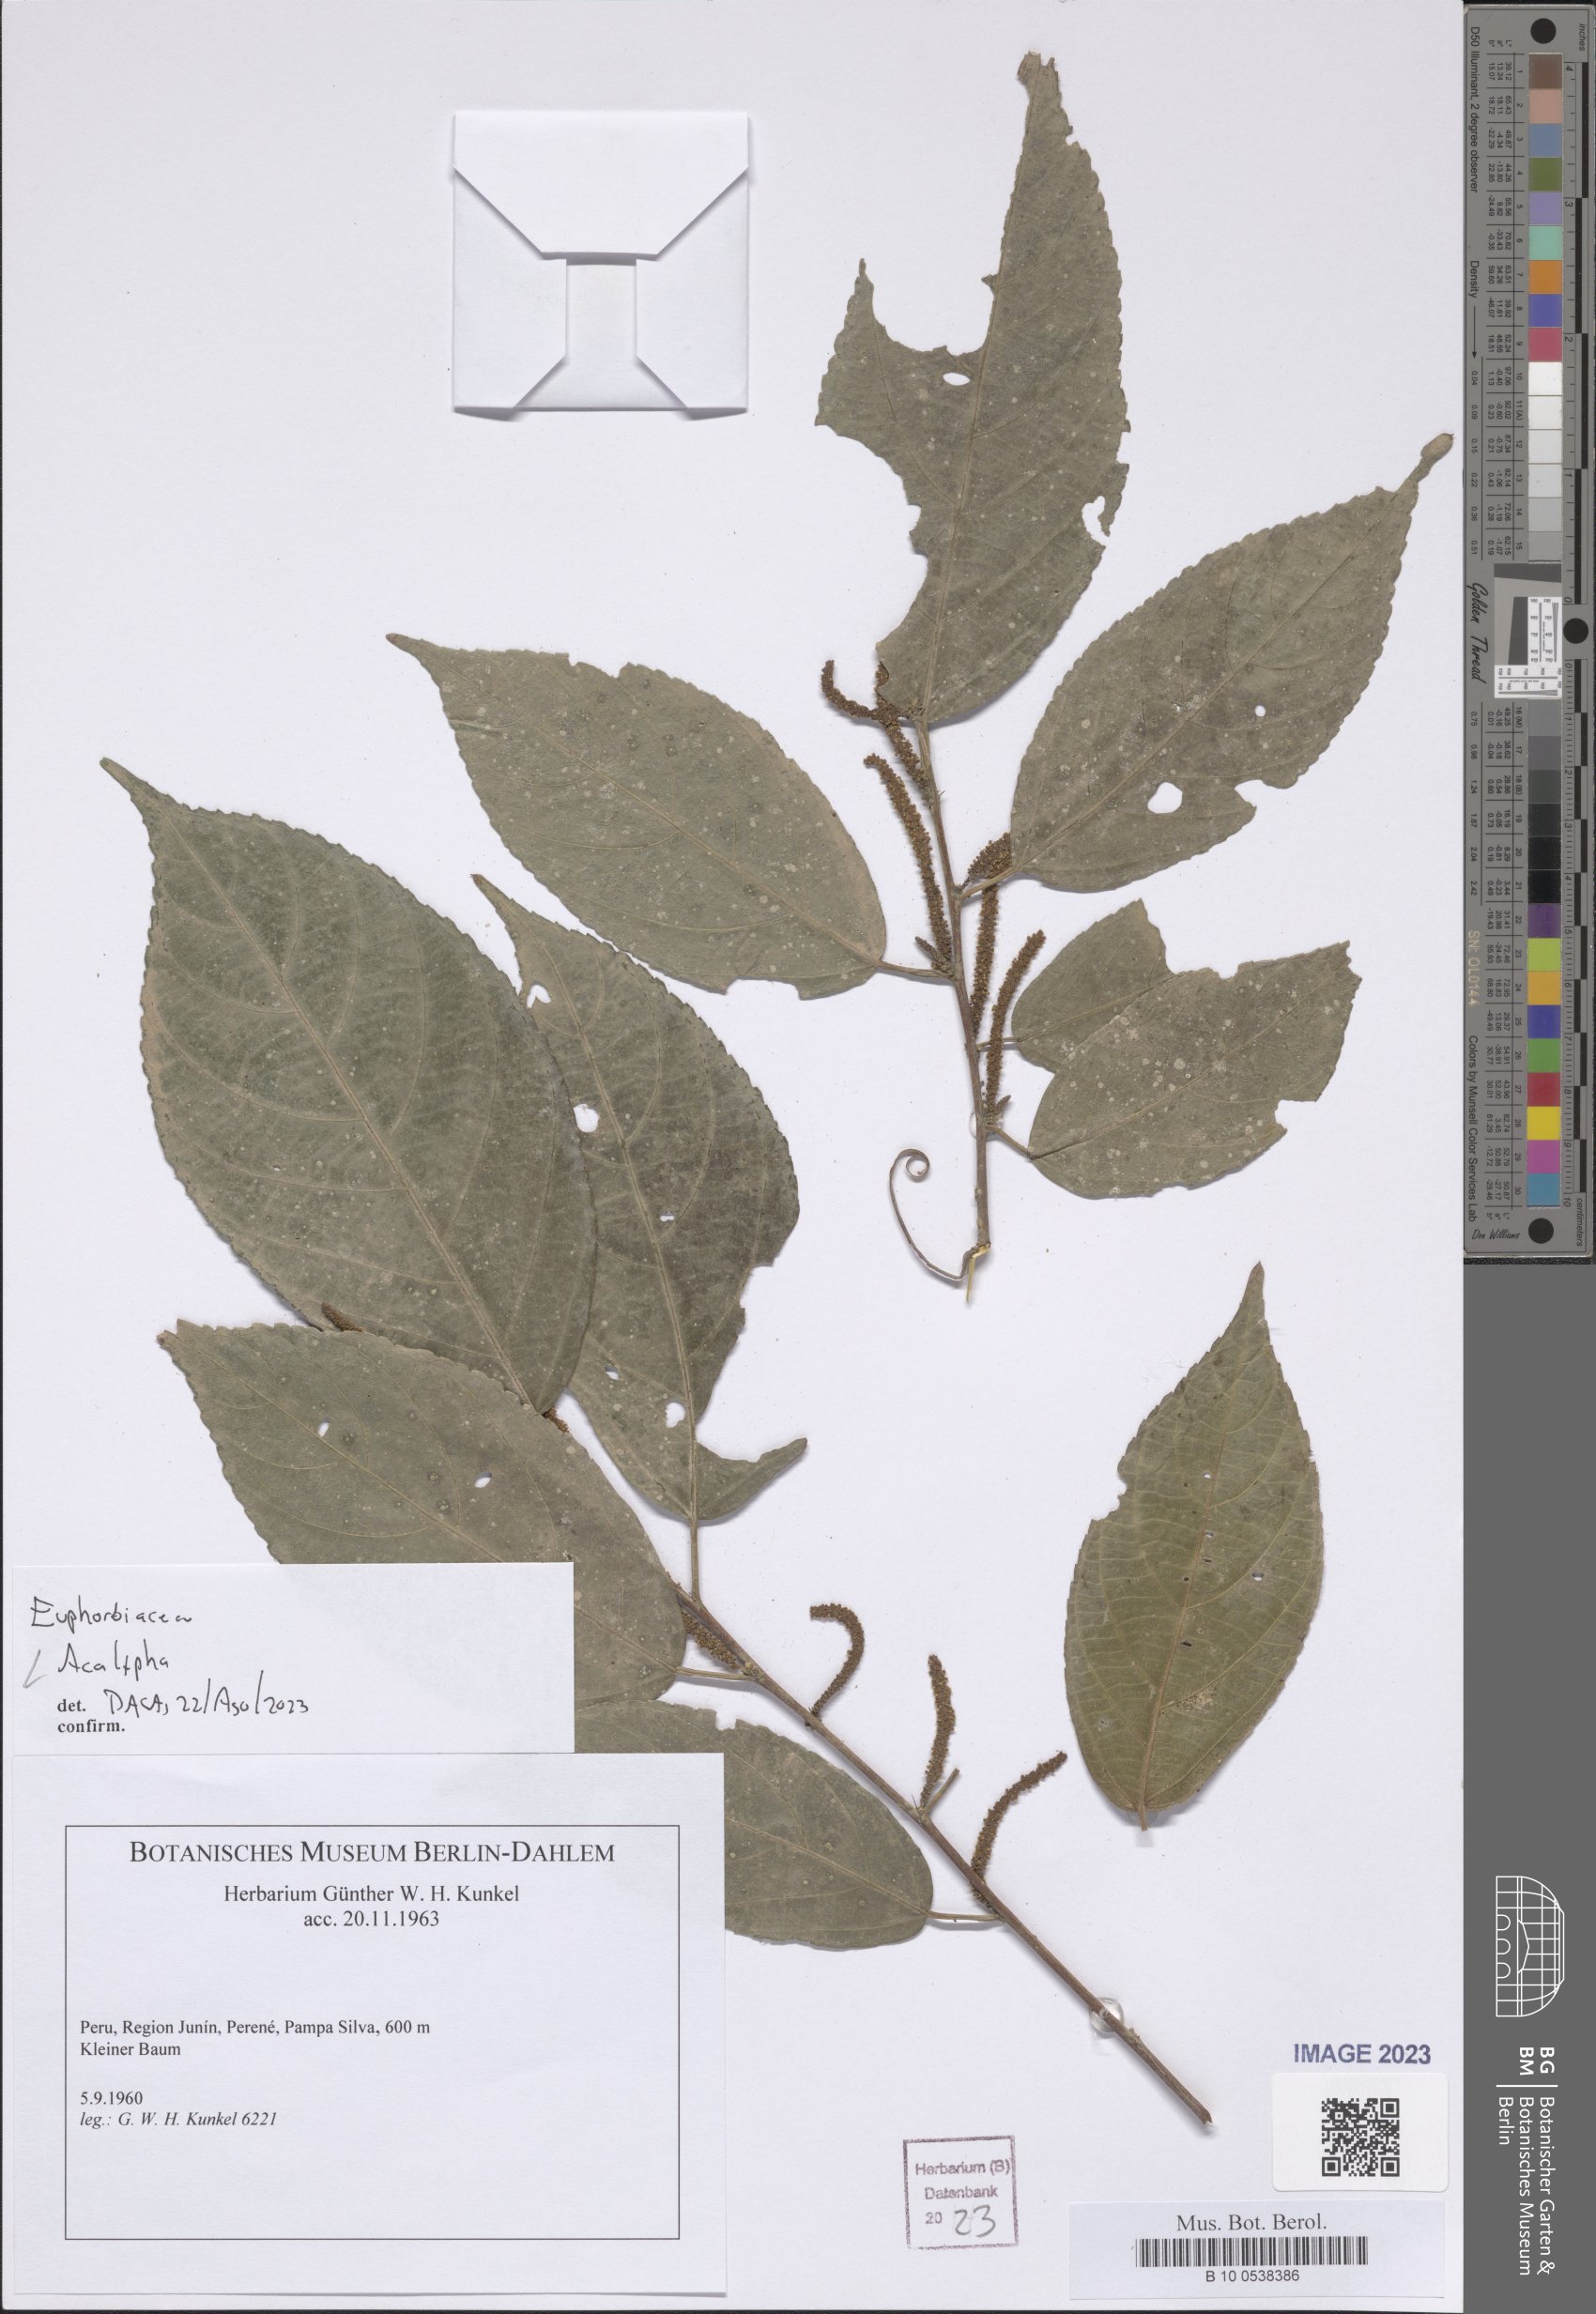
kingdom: Plantae
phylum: Tracheophyta
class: Magnoliopsida
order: Malpighiales
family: Euphorbiaceae
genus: Acalypha
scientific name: Acalypha
